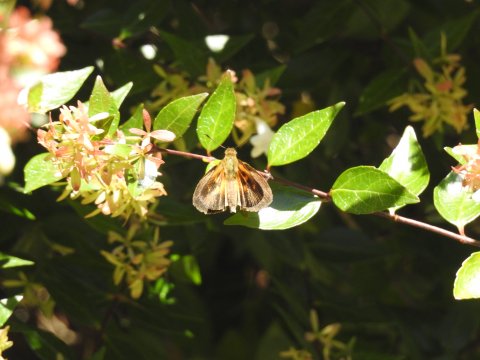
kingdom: Animalia
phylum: Arthropoda
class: Insecta
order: Lepidoptera
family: Hesperiidae
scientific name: Hesperiidae
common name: Skippers
